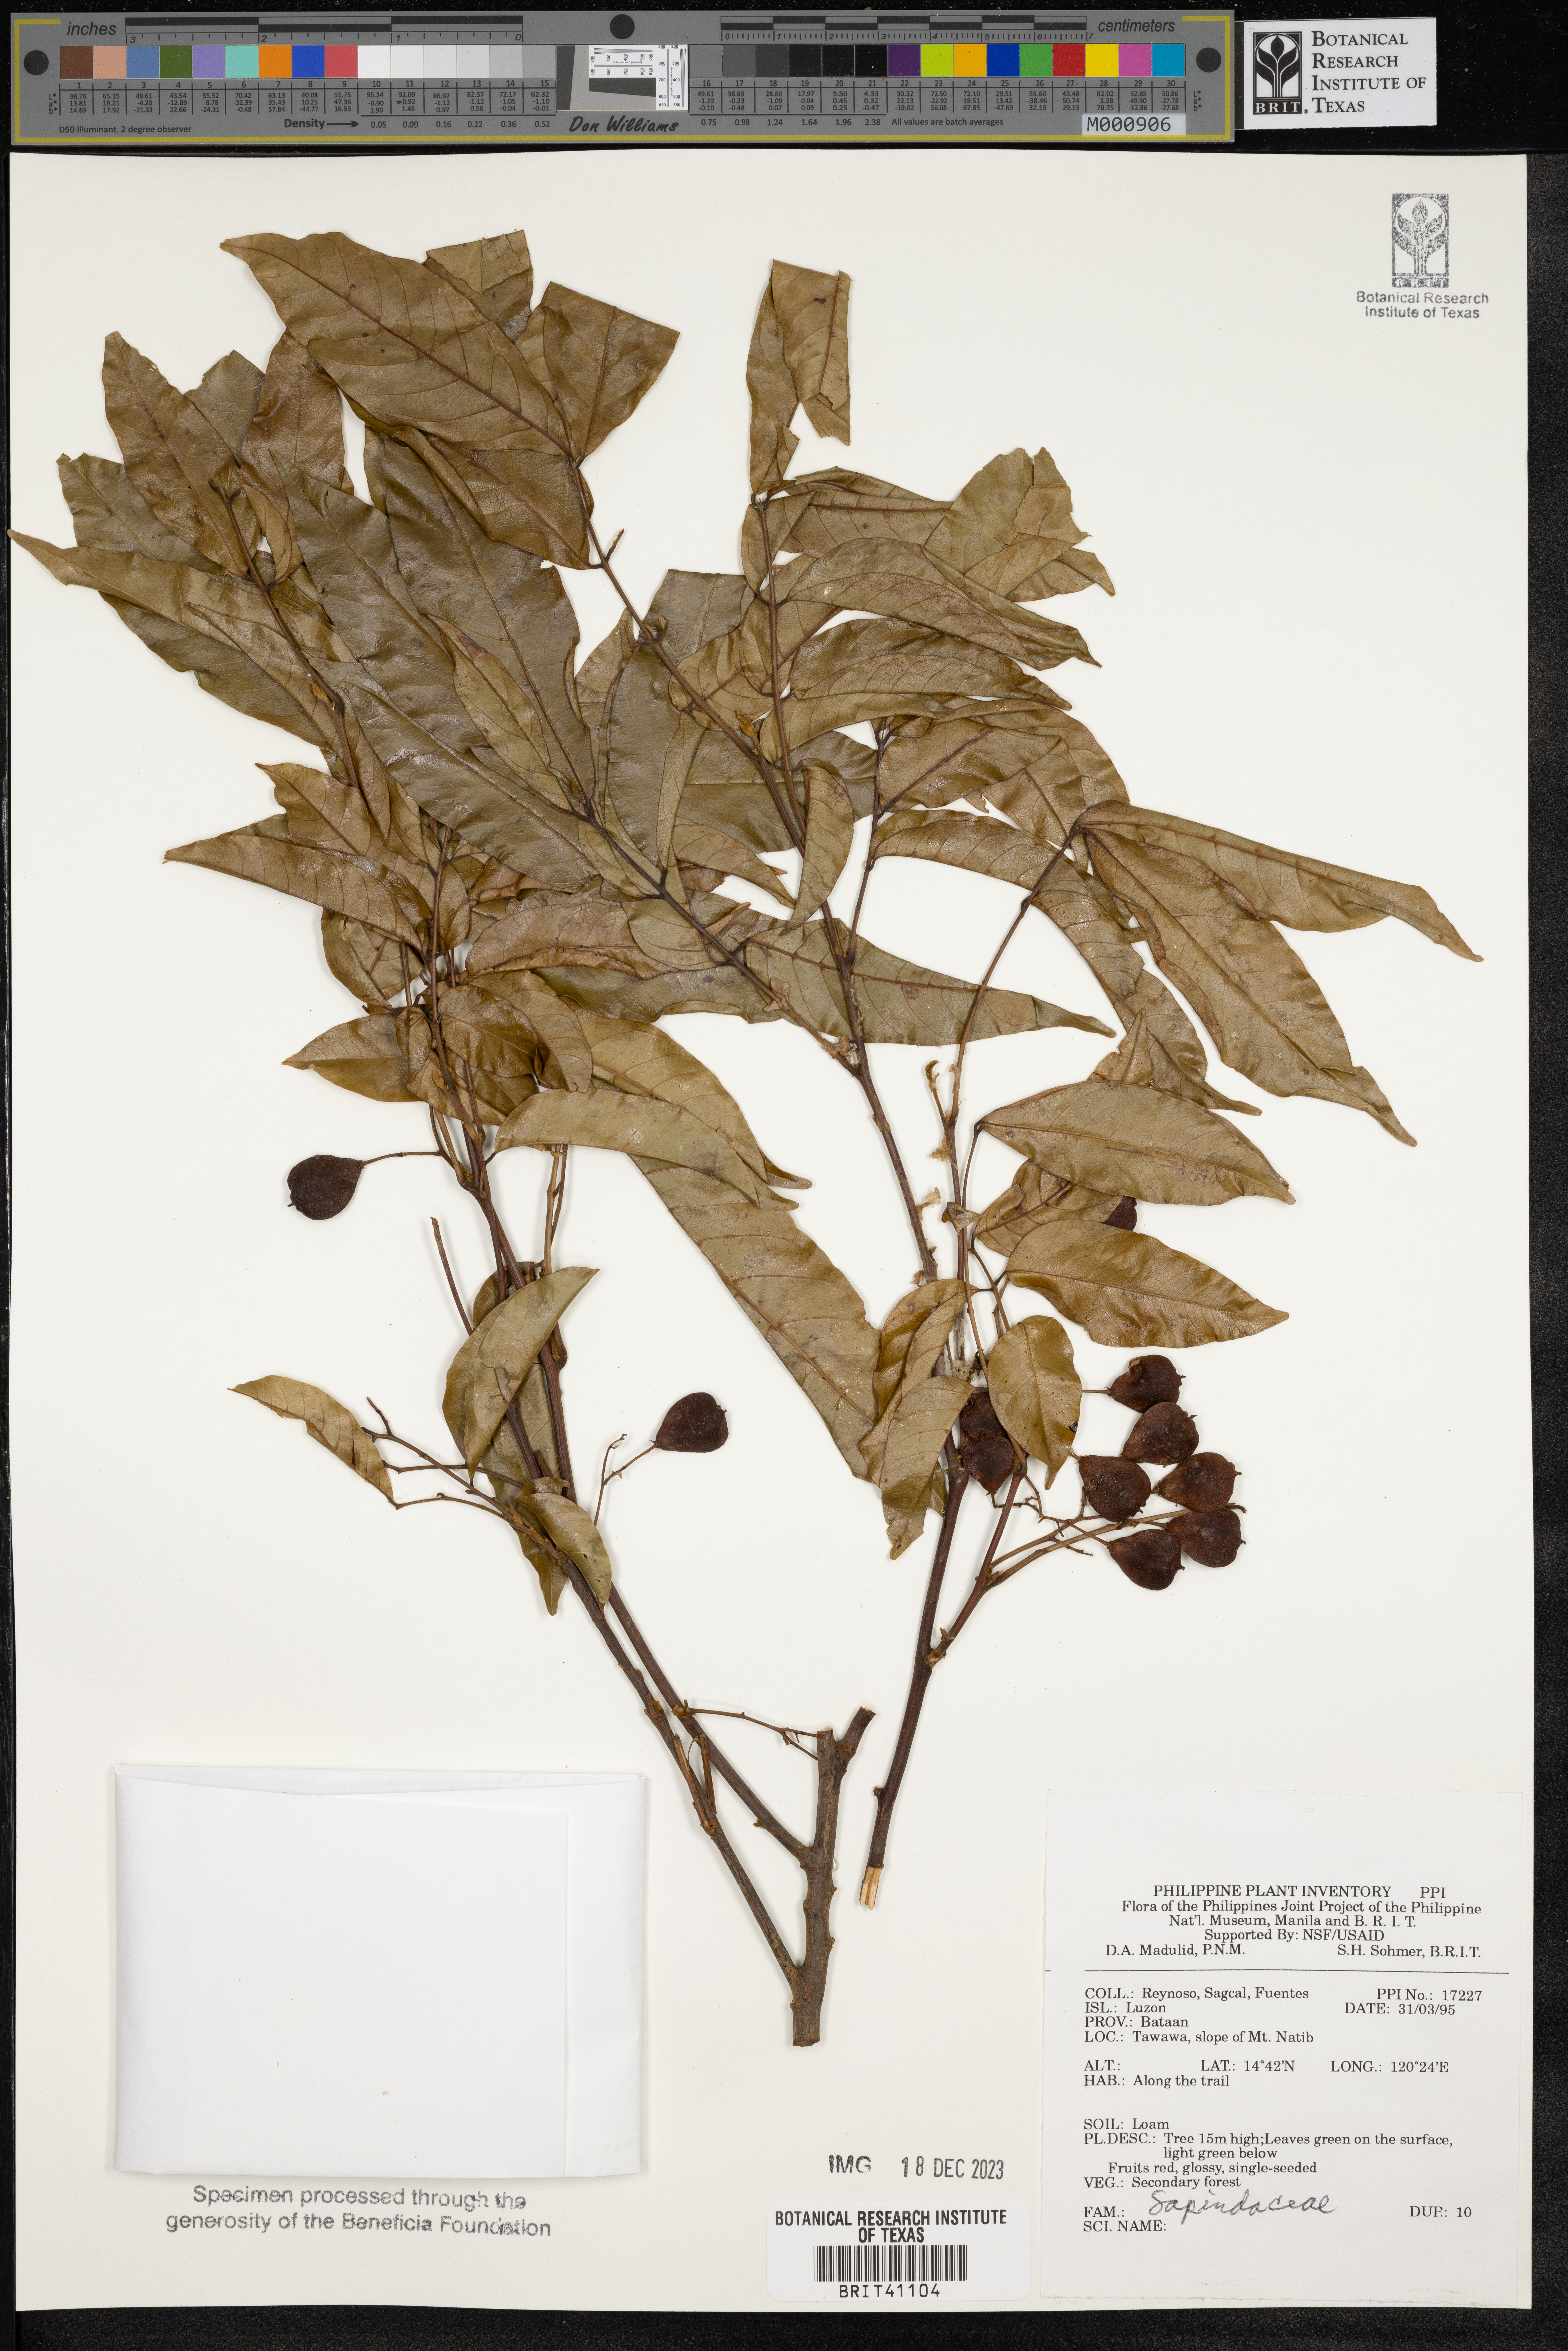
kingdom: Plantae
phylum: Tracheophyta
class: Magnoliopsida
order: Sapindales
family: Sapindaceae
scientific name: Sapindaceae
